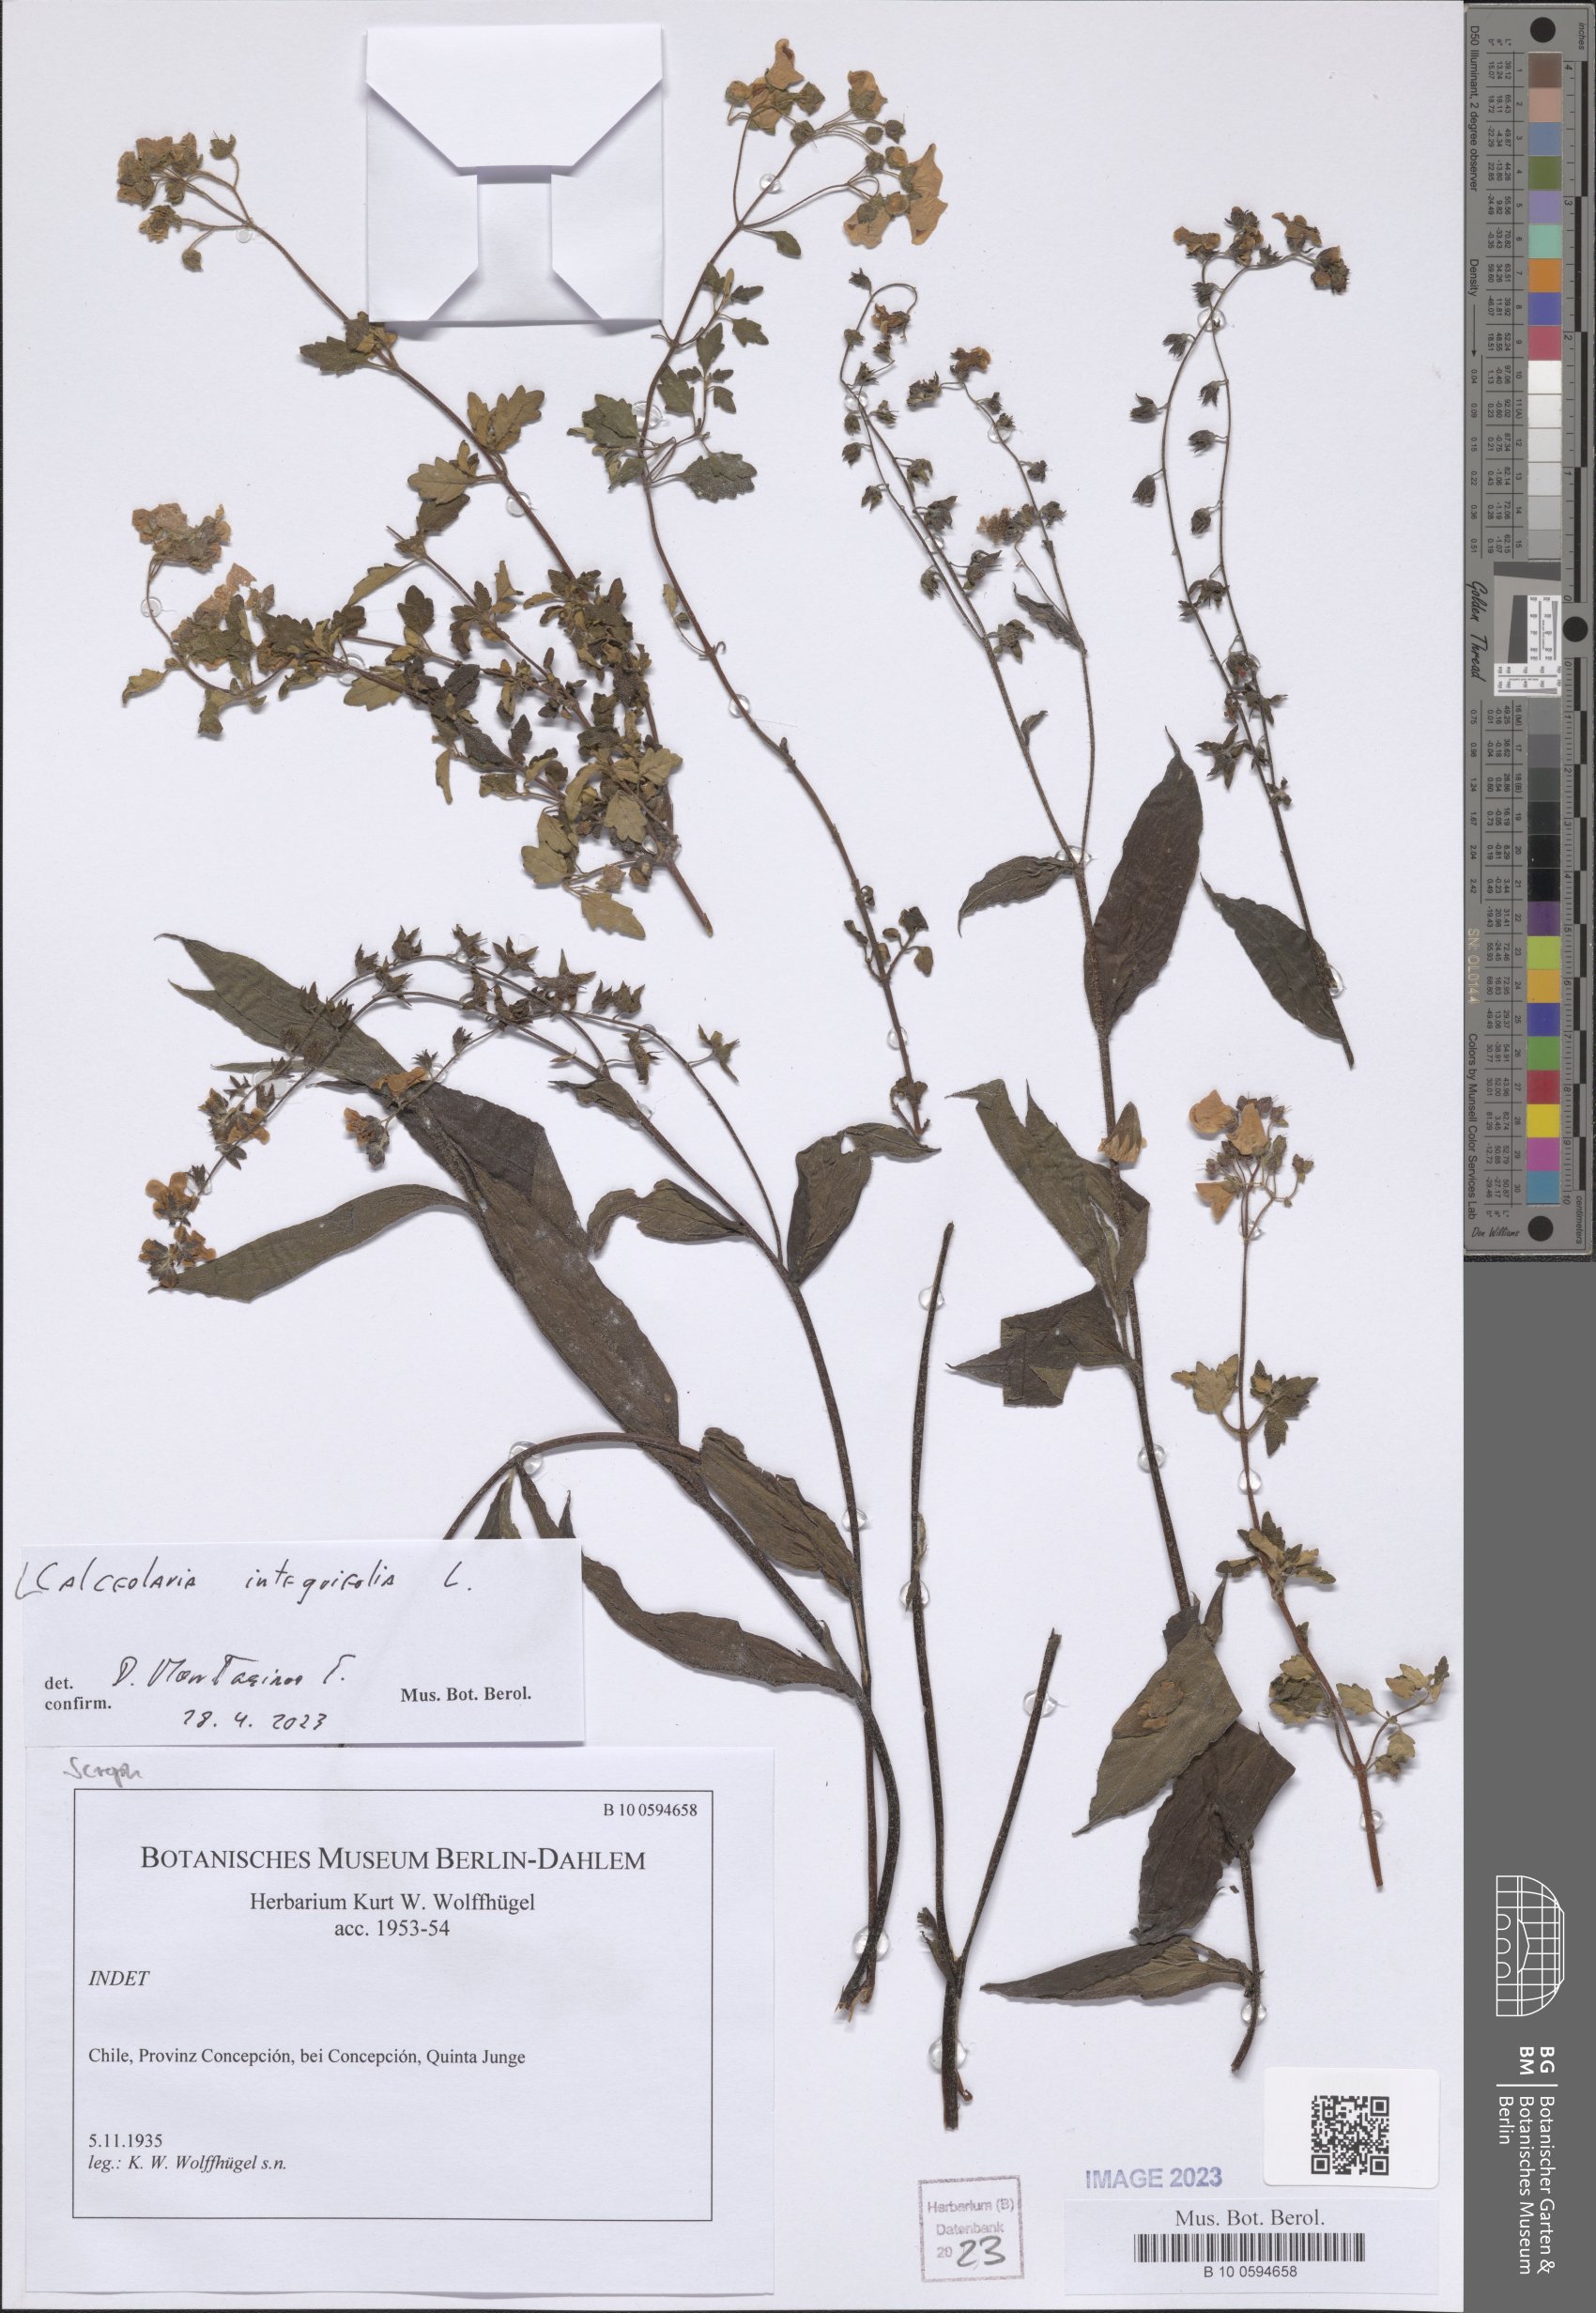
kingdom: Plantae
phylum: Tracheophyta
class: Magnoliopsida
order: Lamiales
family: Calceolariaceae
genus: Calceolaria
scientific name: Calceolaria integrifolia
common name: Bush slipperwort
